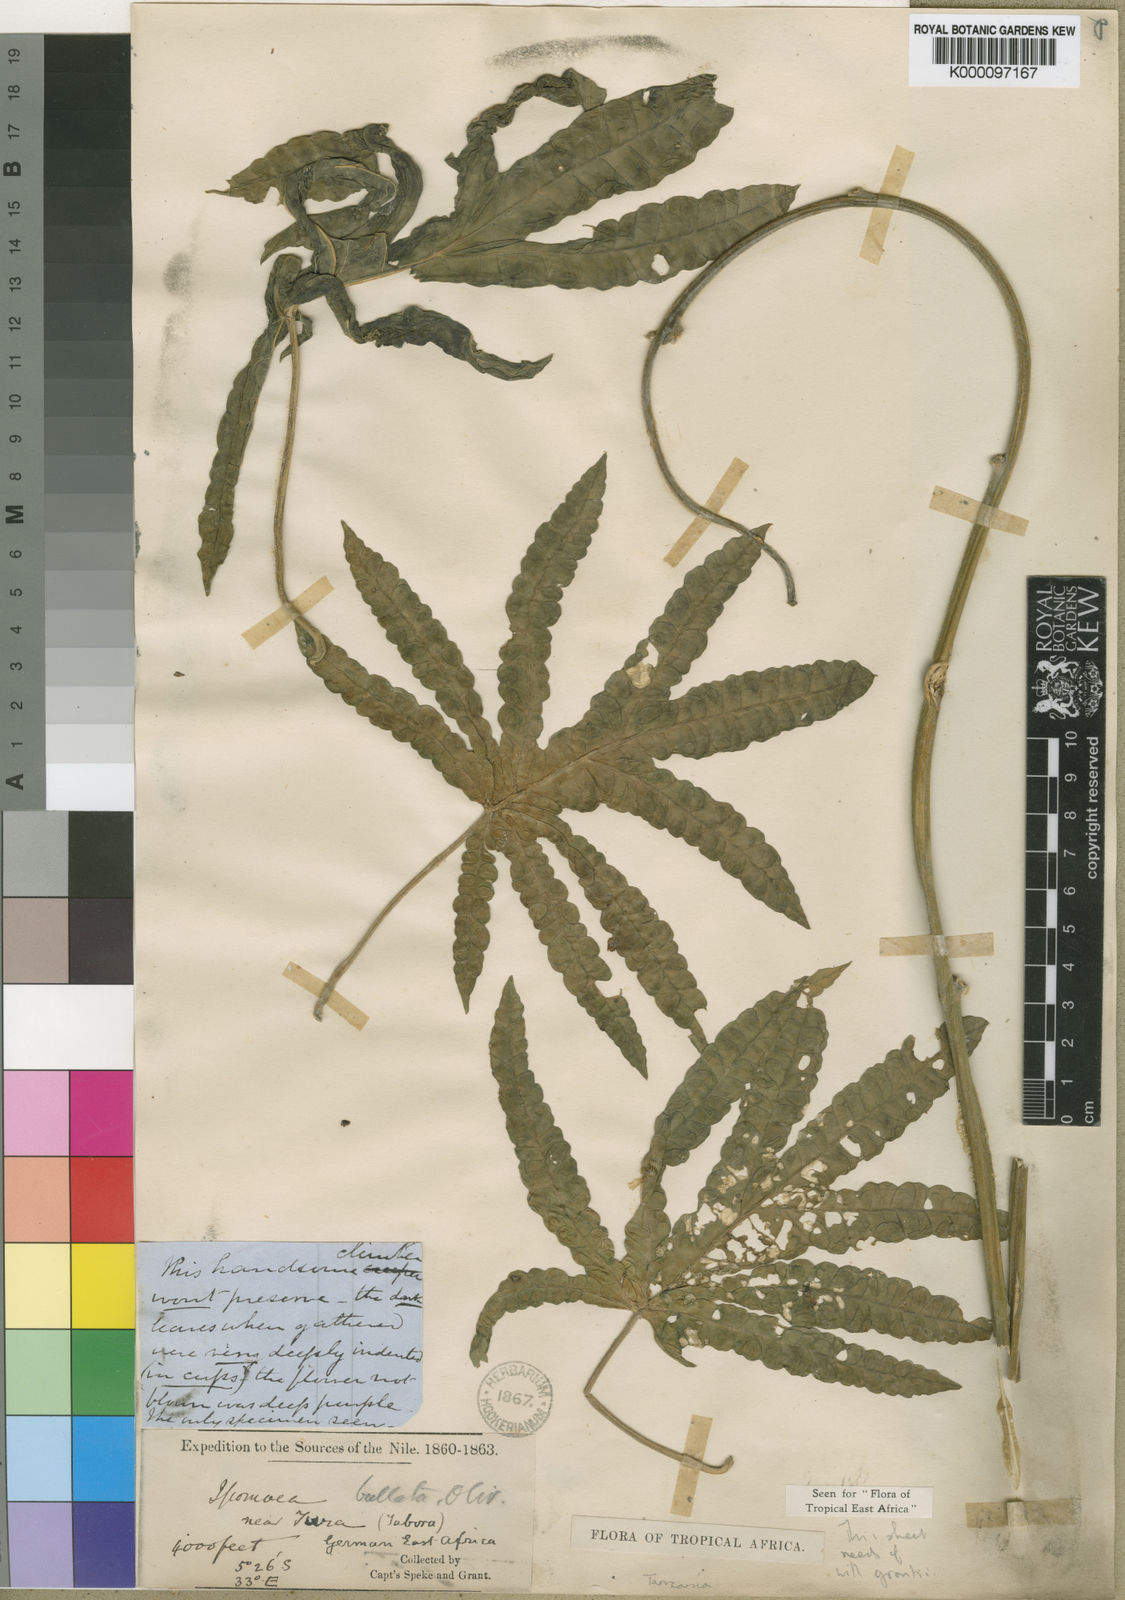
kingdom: Plantae
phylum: Tracheophyta
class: Magnoliopsida
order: Solanales
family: Convolvulaceae
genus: Ipomoea
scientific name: Ipomoea bullata
